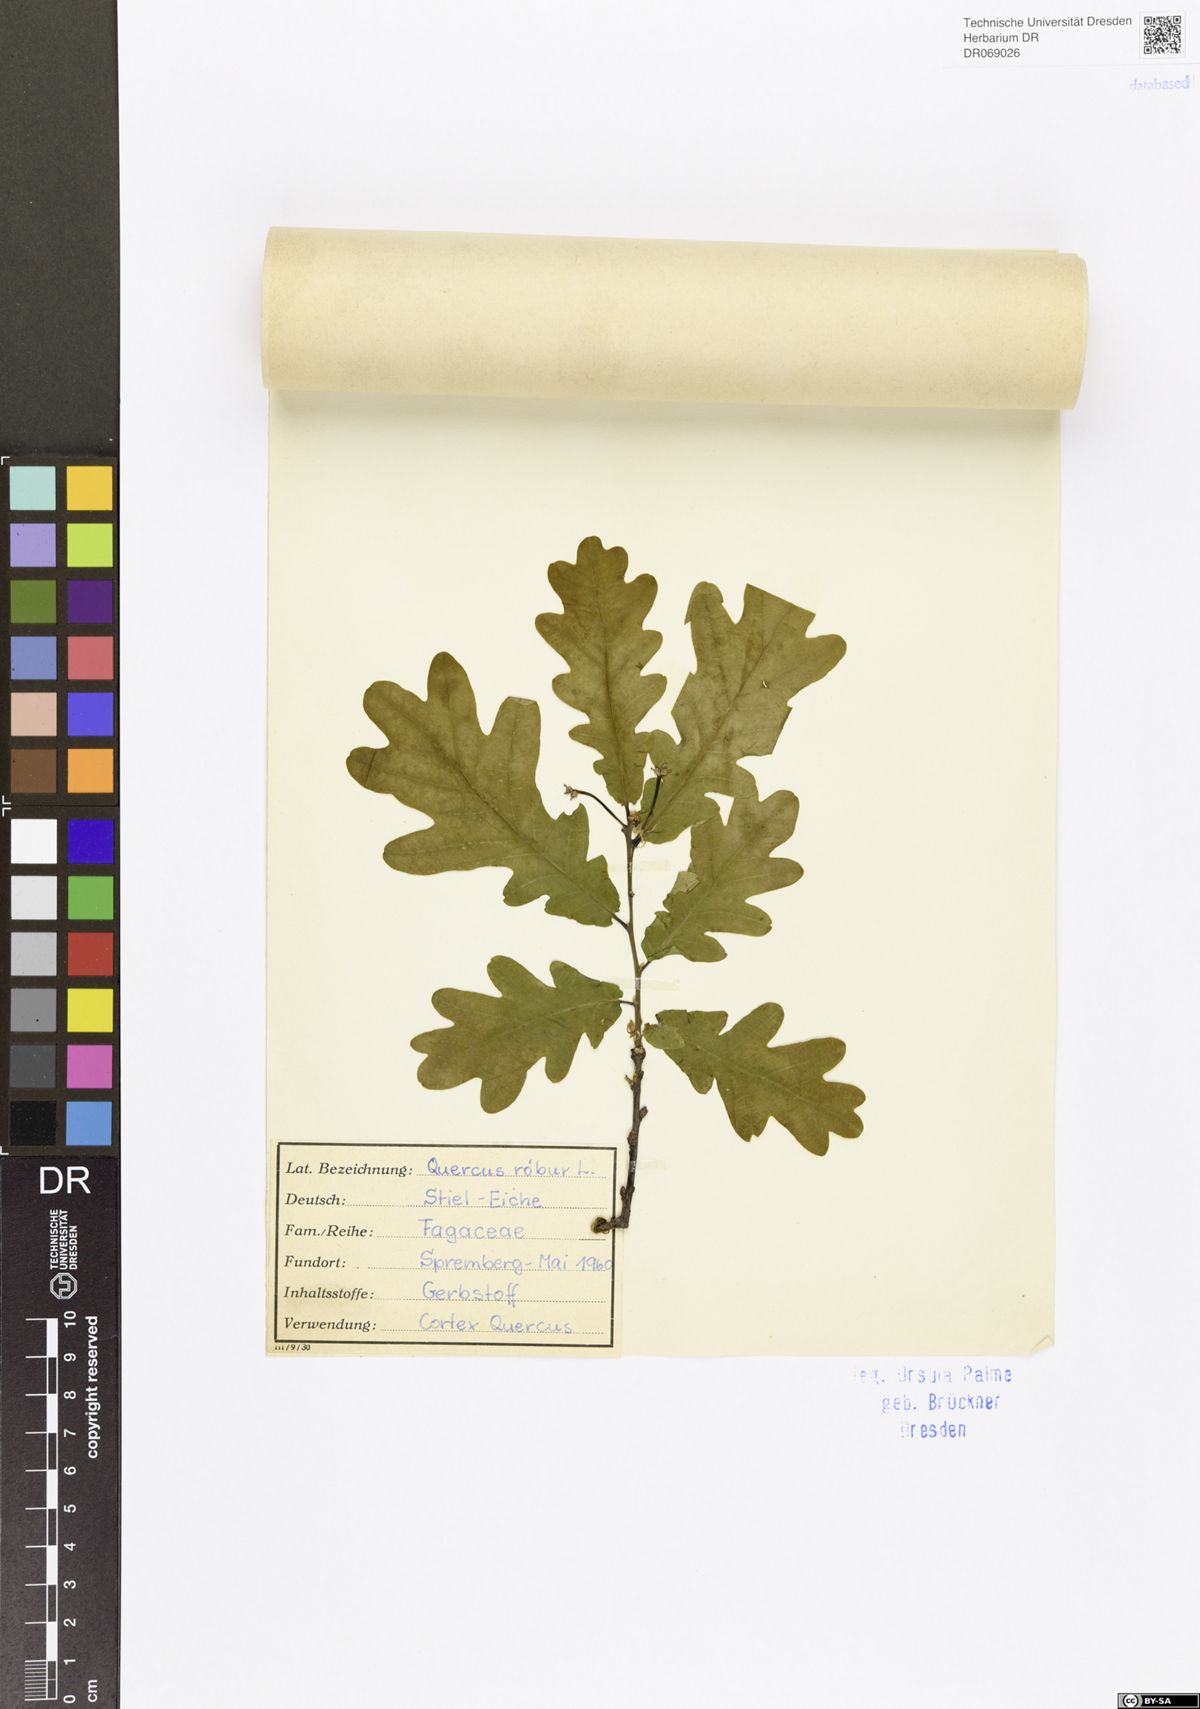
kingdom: Plantae
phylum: Tracheophyta
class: Magnoliopsida
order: Fagales
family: Fagaceae
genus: Quercus
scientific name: Quercus robur
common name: Pedunculate oak
